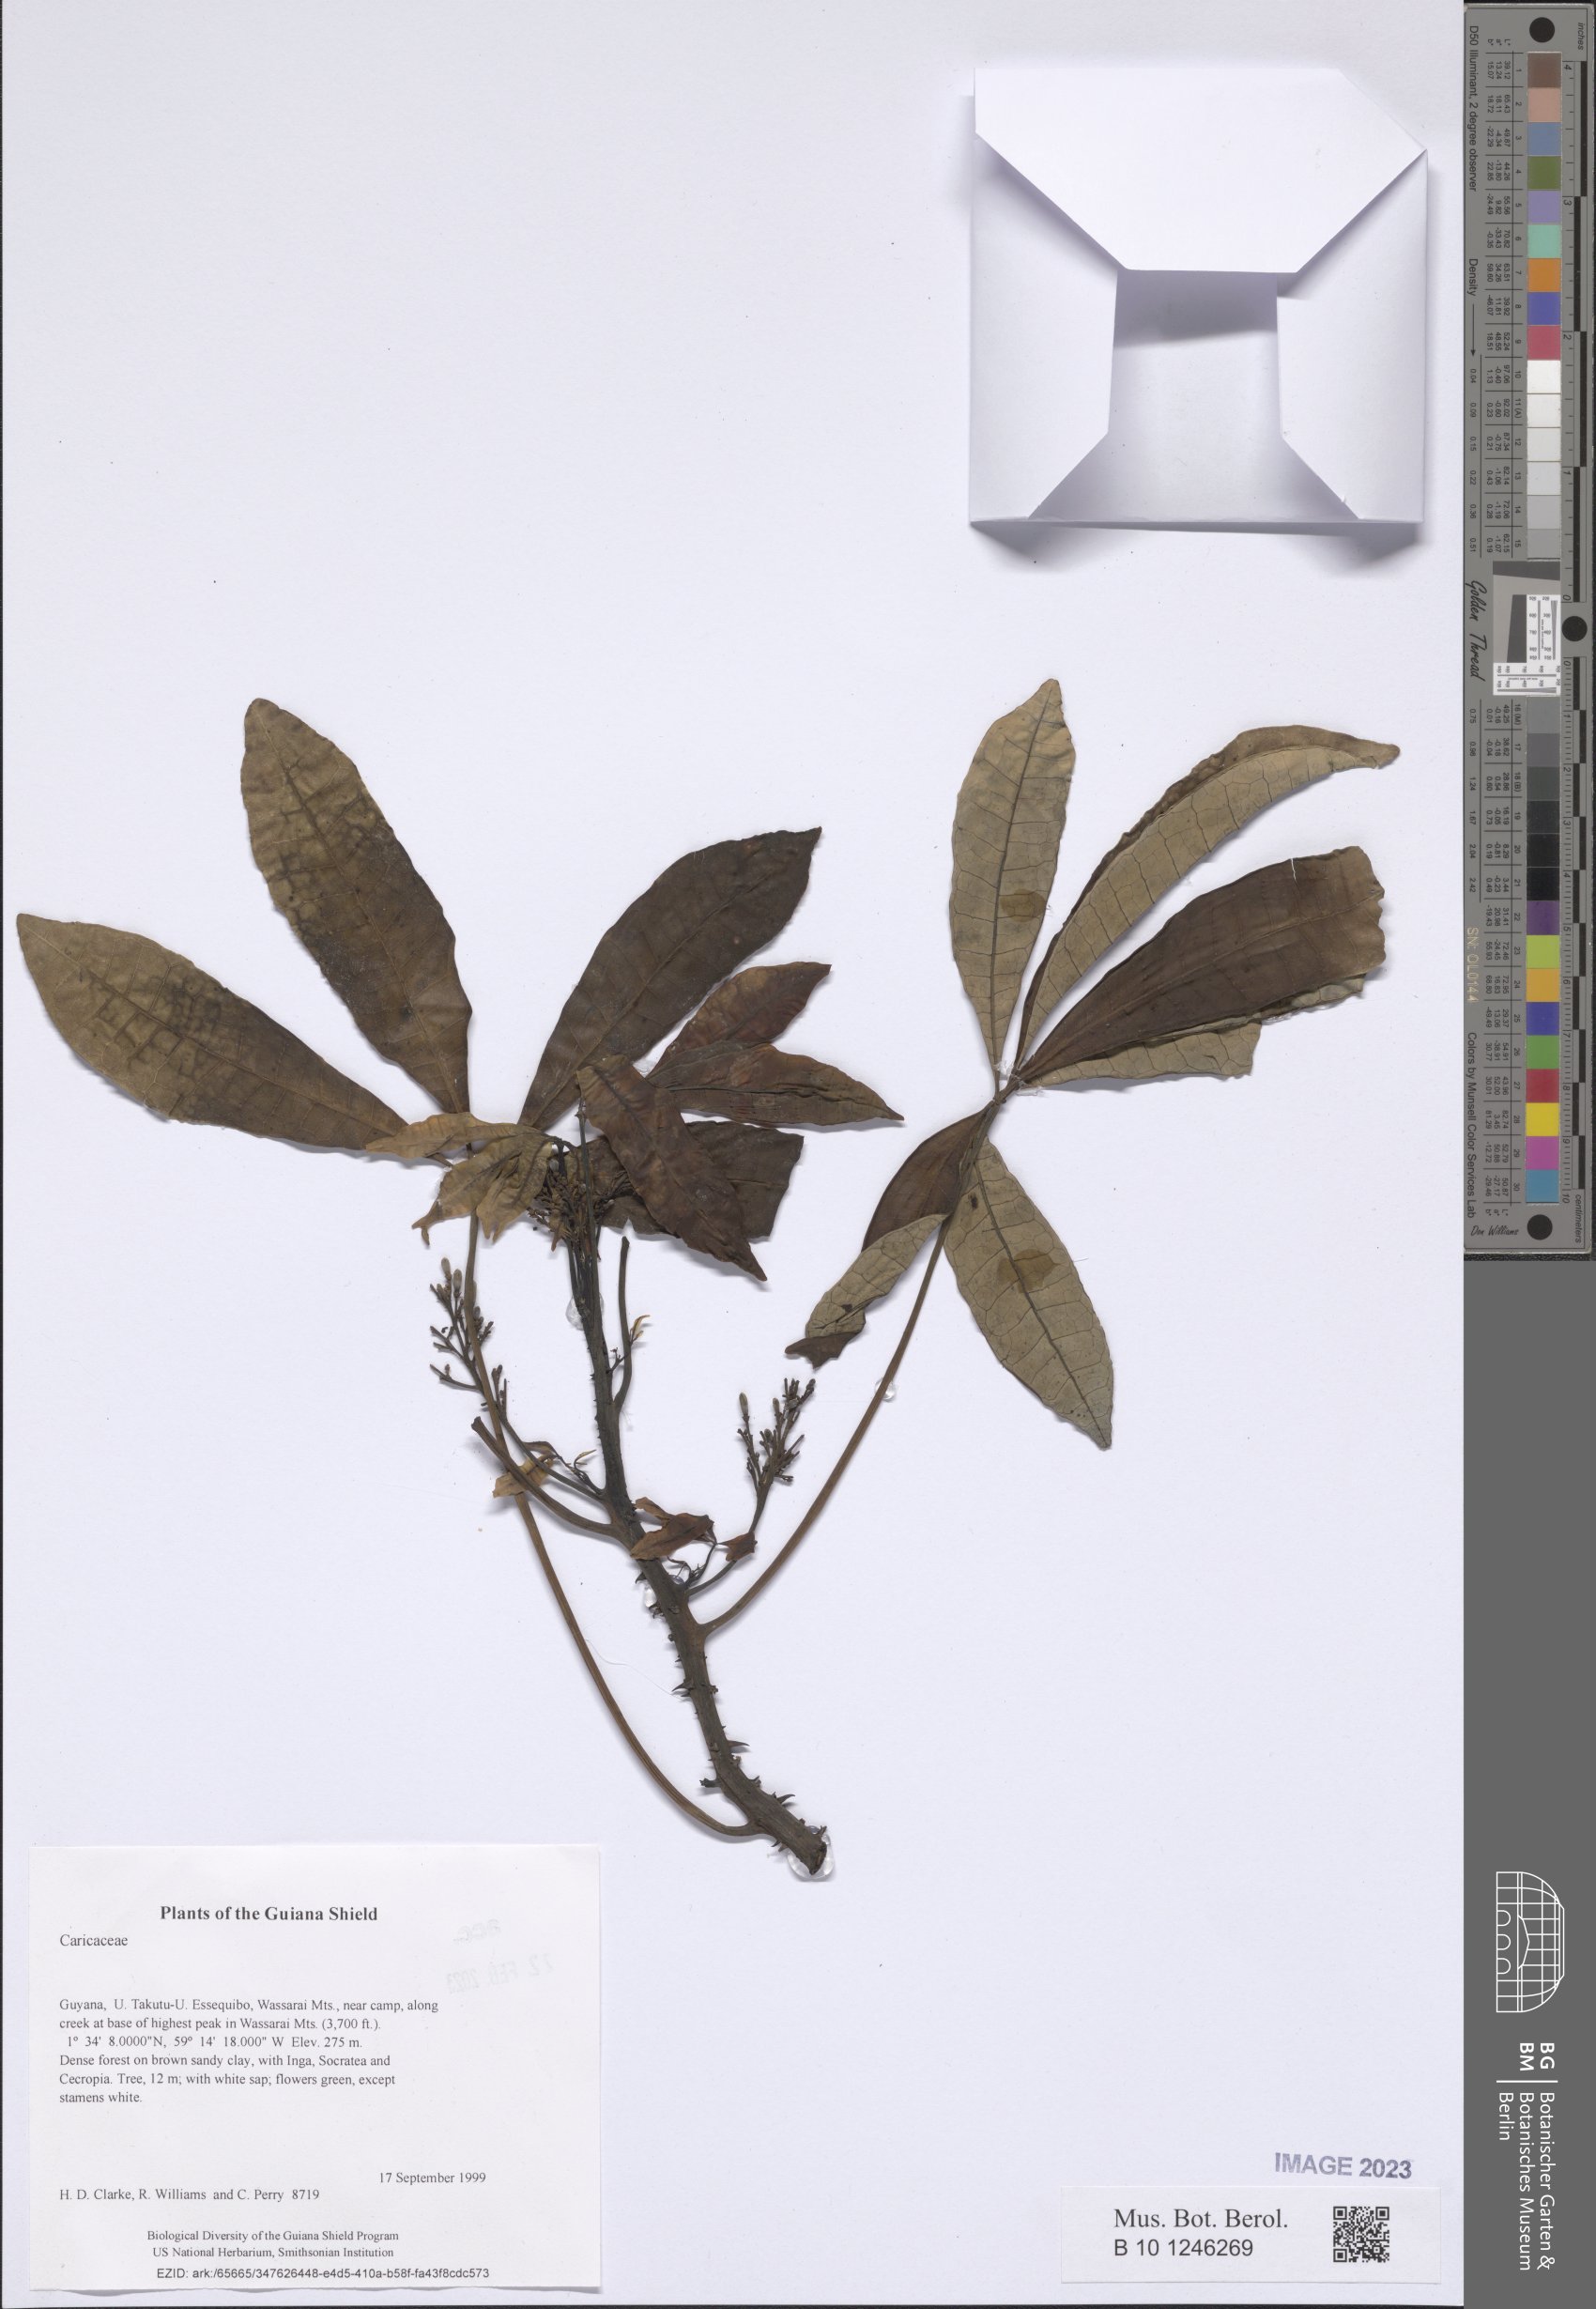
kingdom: Plantae
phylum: Tracheophyta
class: Magnoliopsida
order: Brassicales
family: Caricaceae
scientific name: Caricaceae
